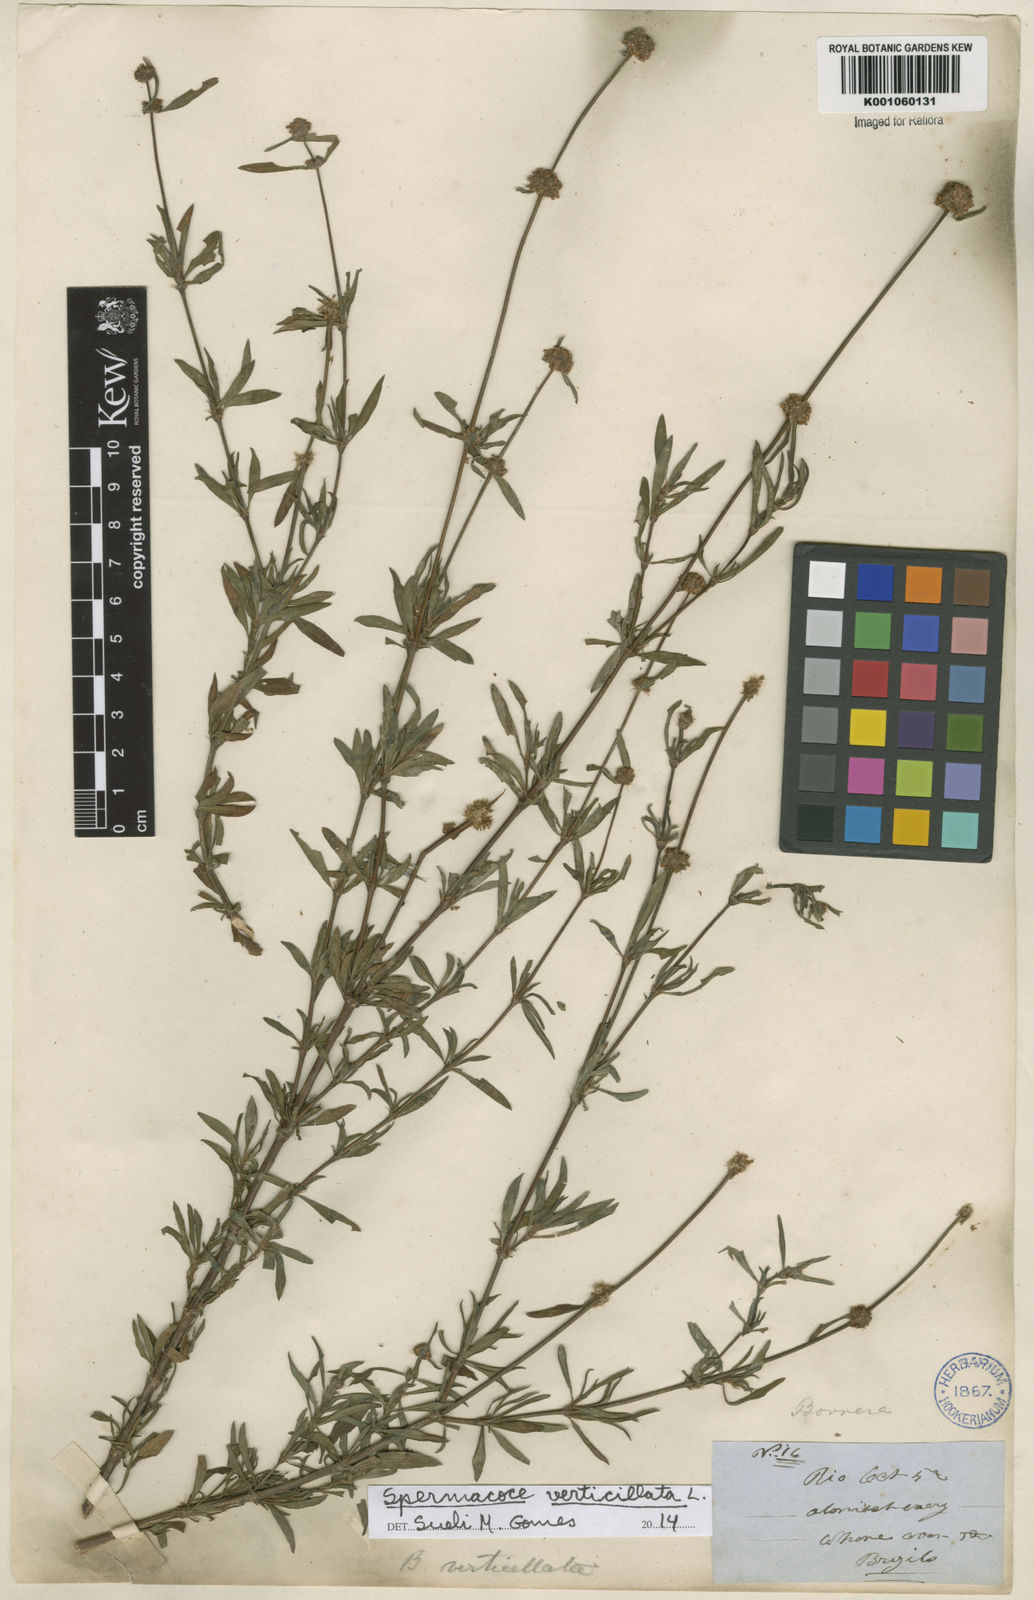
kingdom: Plantae
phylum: Tracheophyta
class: Magnoliopsida
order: Gentianales
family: Rubiaceae
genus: Spermacoce
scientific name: Spermacoce verticillata
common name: Shrubby false buttonweed
